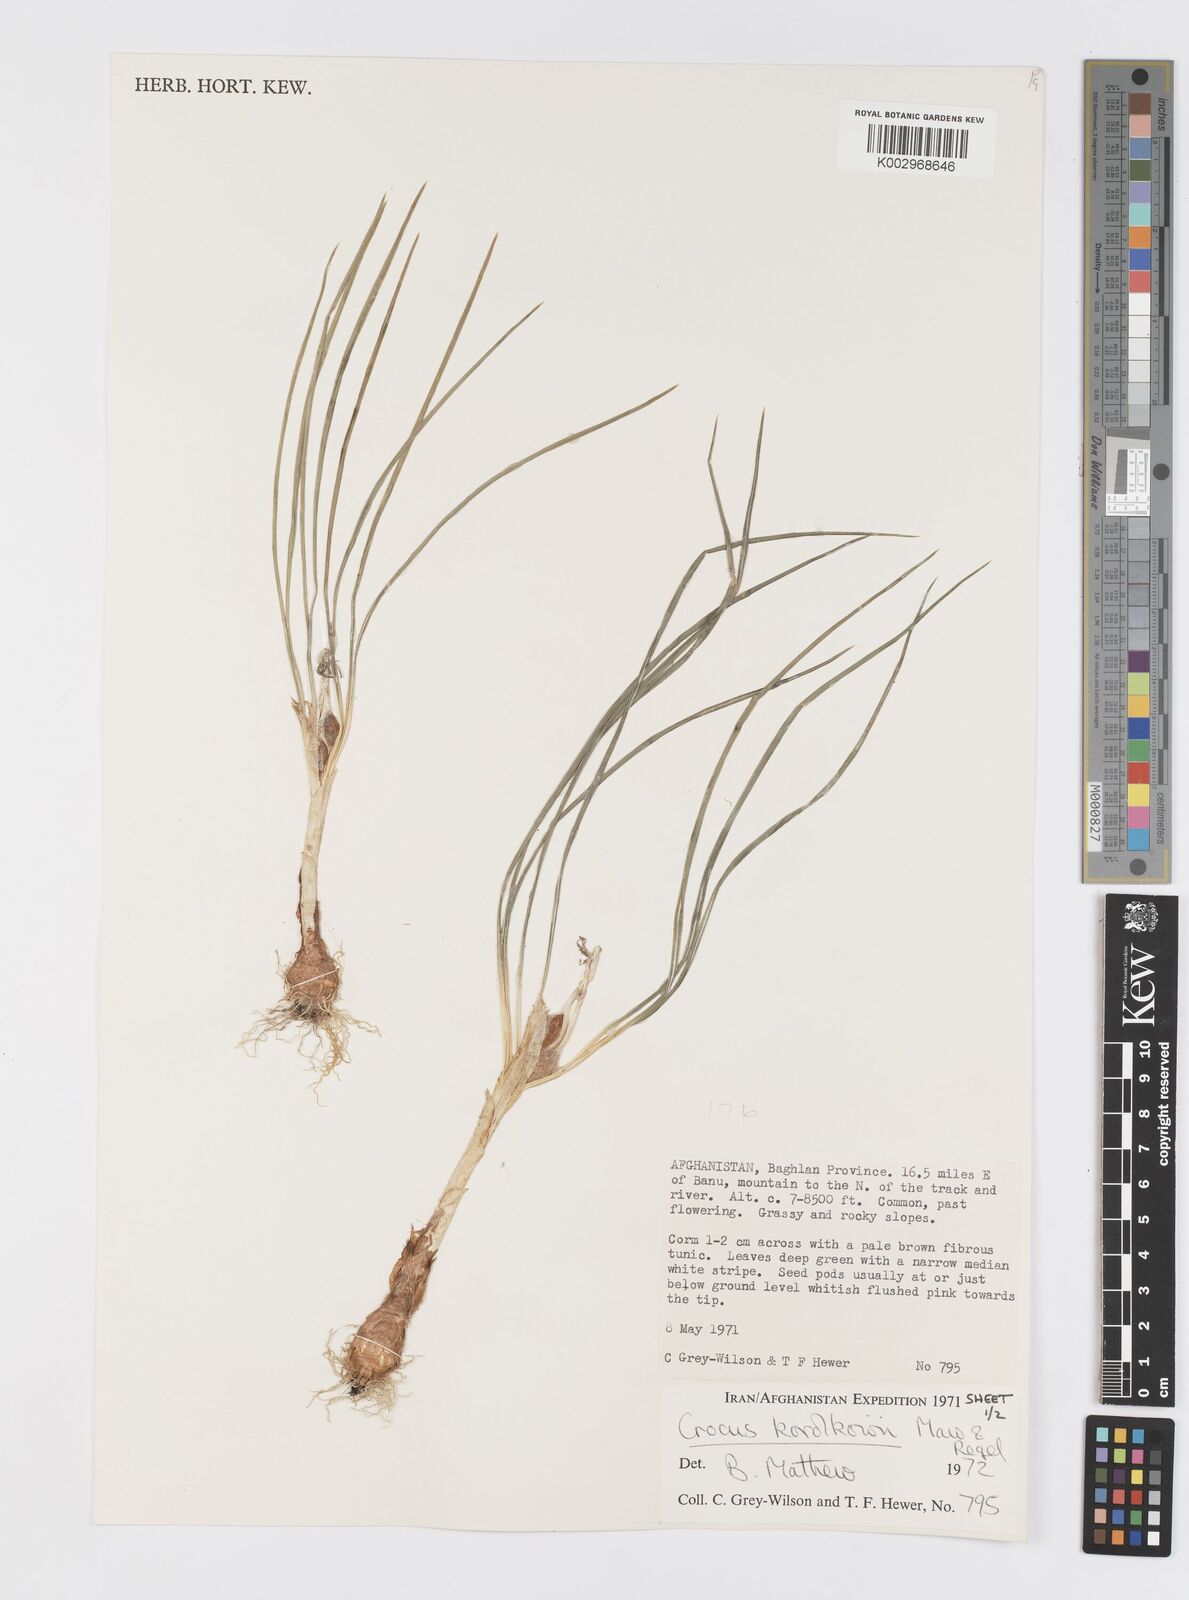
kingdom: Plantae
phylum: Tracheophyta
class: Liliopsida
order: Asparagales
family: Iridaceae
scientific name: Iridaceae
